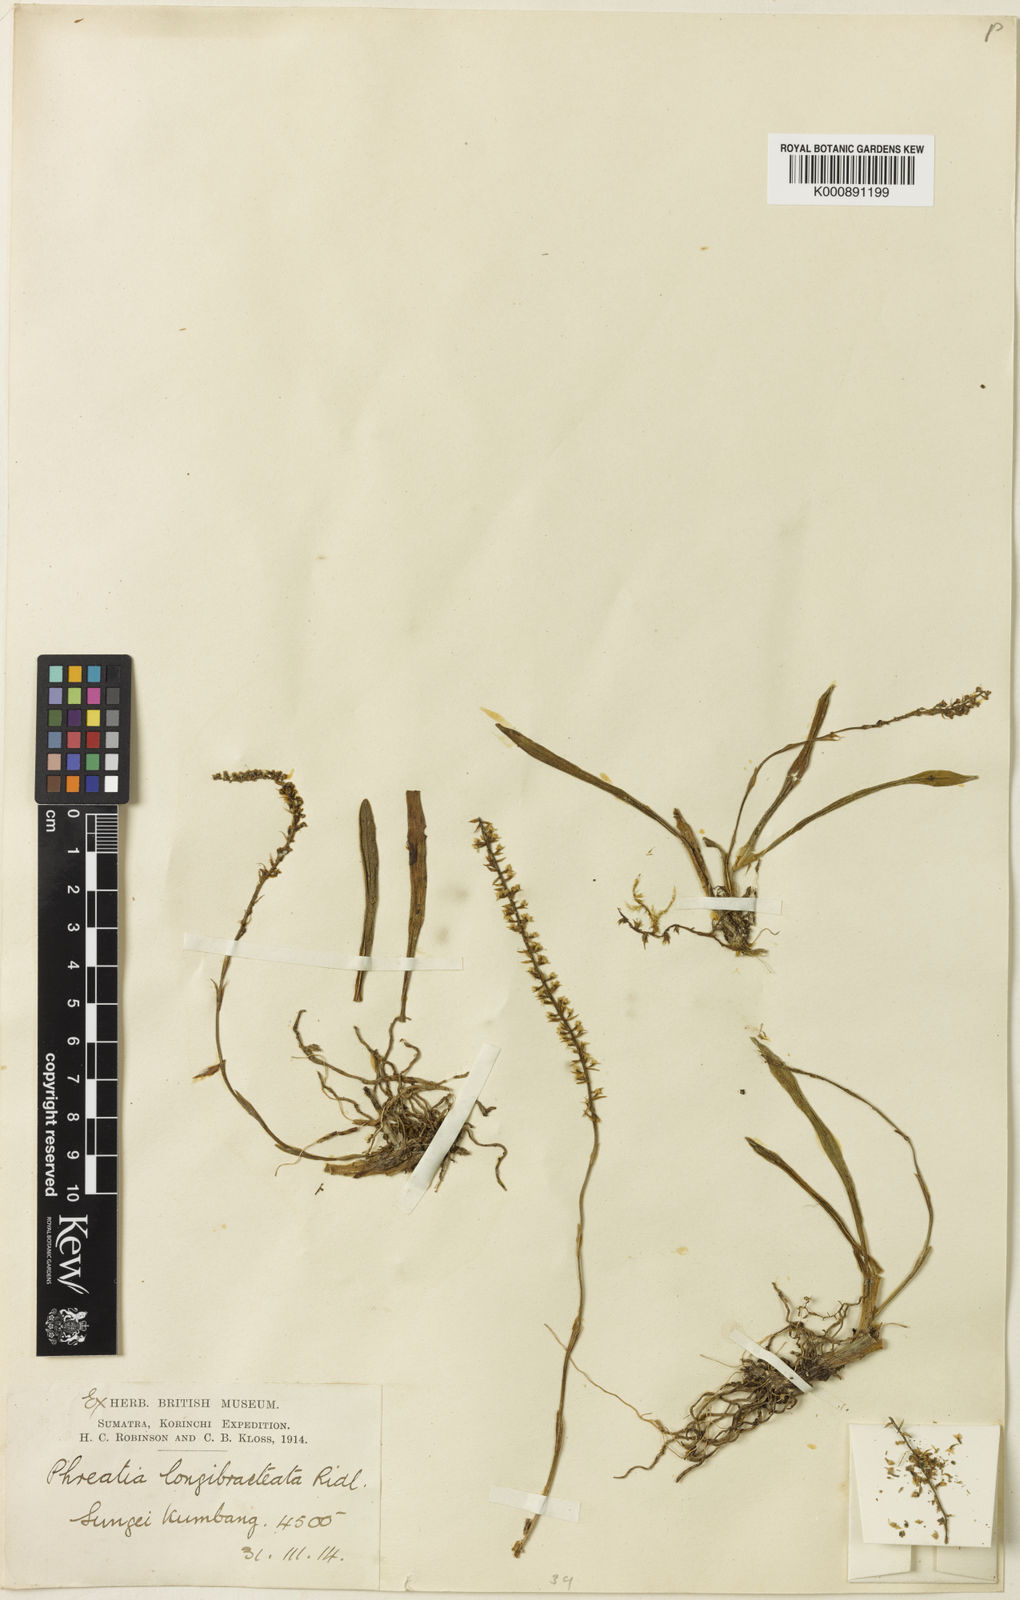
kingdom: Plantae
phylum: Tracheophyta
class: Liliopsida
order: Asparagales
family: Orchidaceae
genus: Phreatia
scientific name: Phreatia longibracteata
